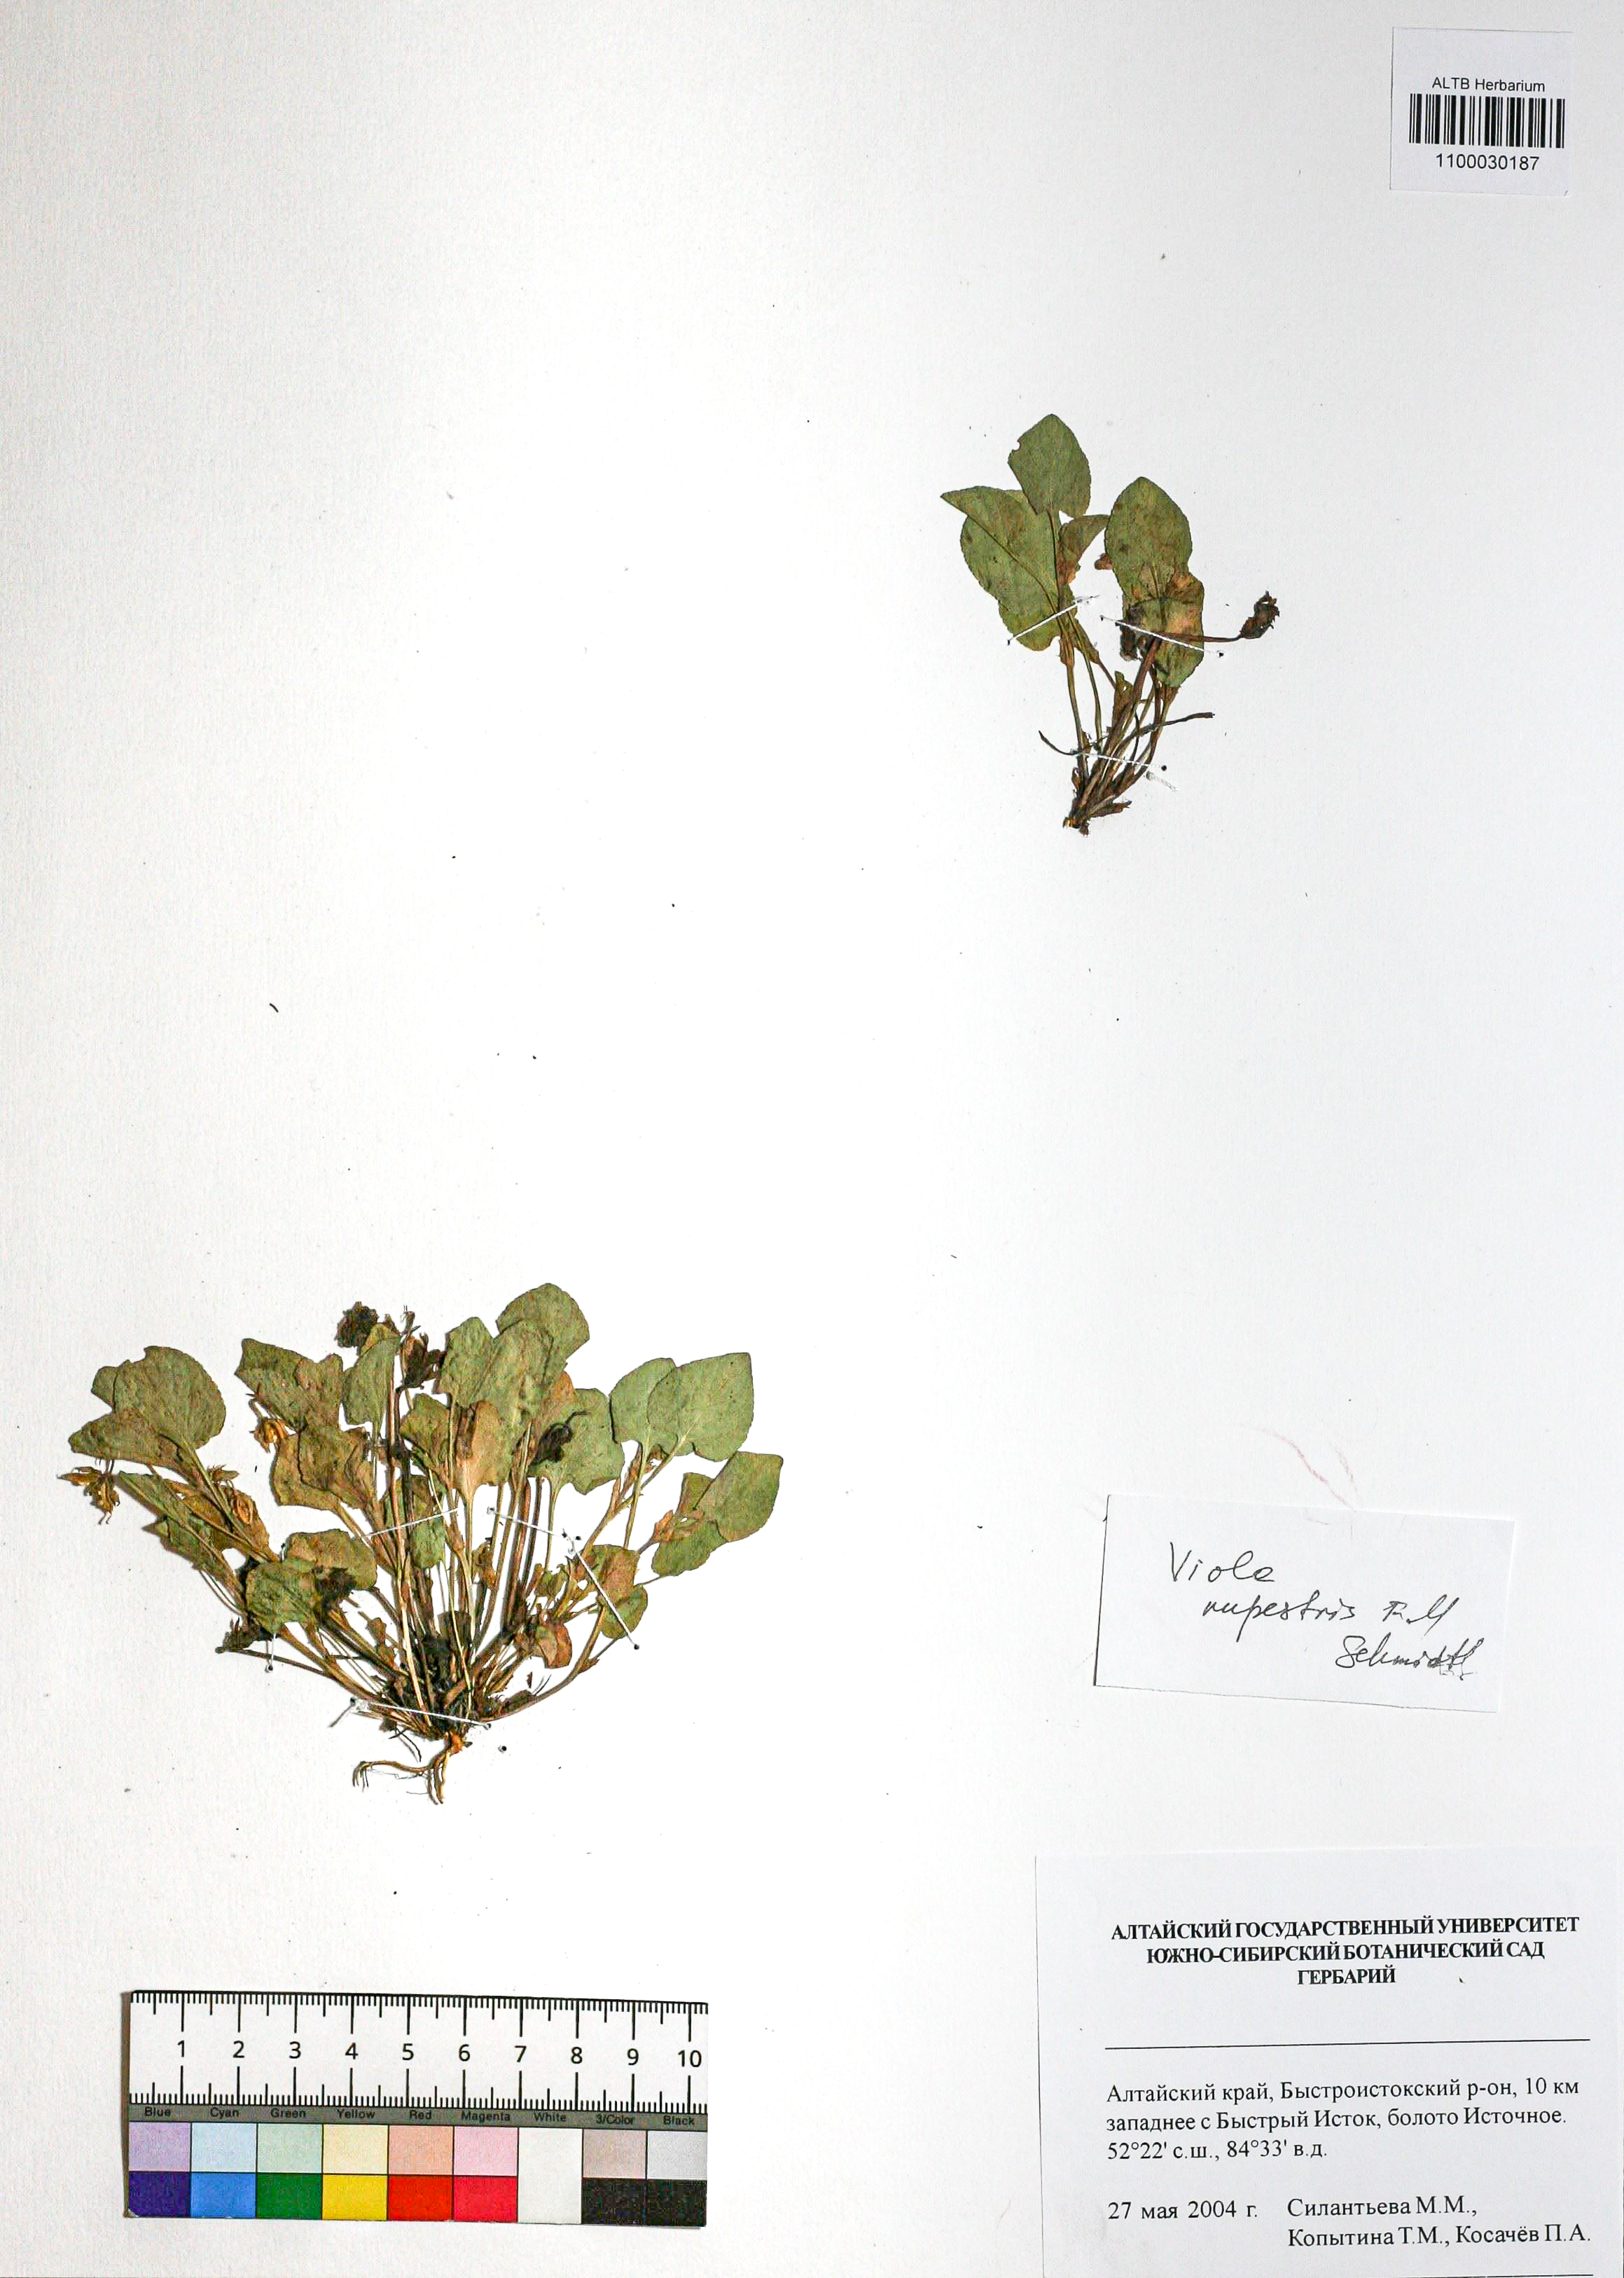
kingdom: Plantae
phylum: Tracheophyta
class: Magnoliopsida
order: Malpighiales
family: Violaceae
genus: Viola
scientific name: Viola rupestris
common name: Teesdale violet
